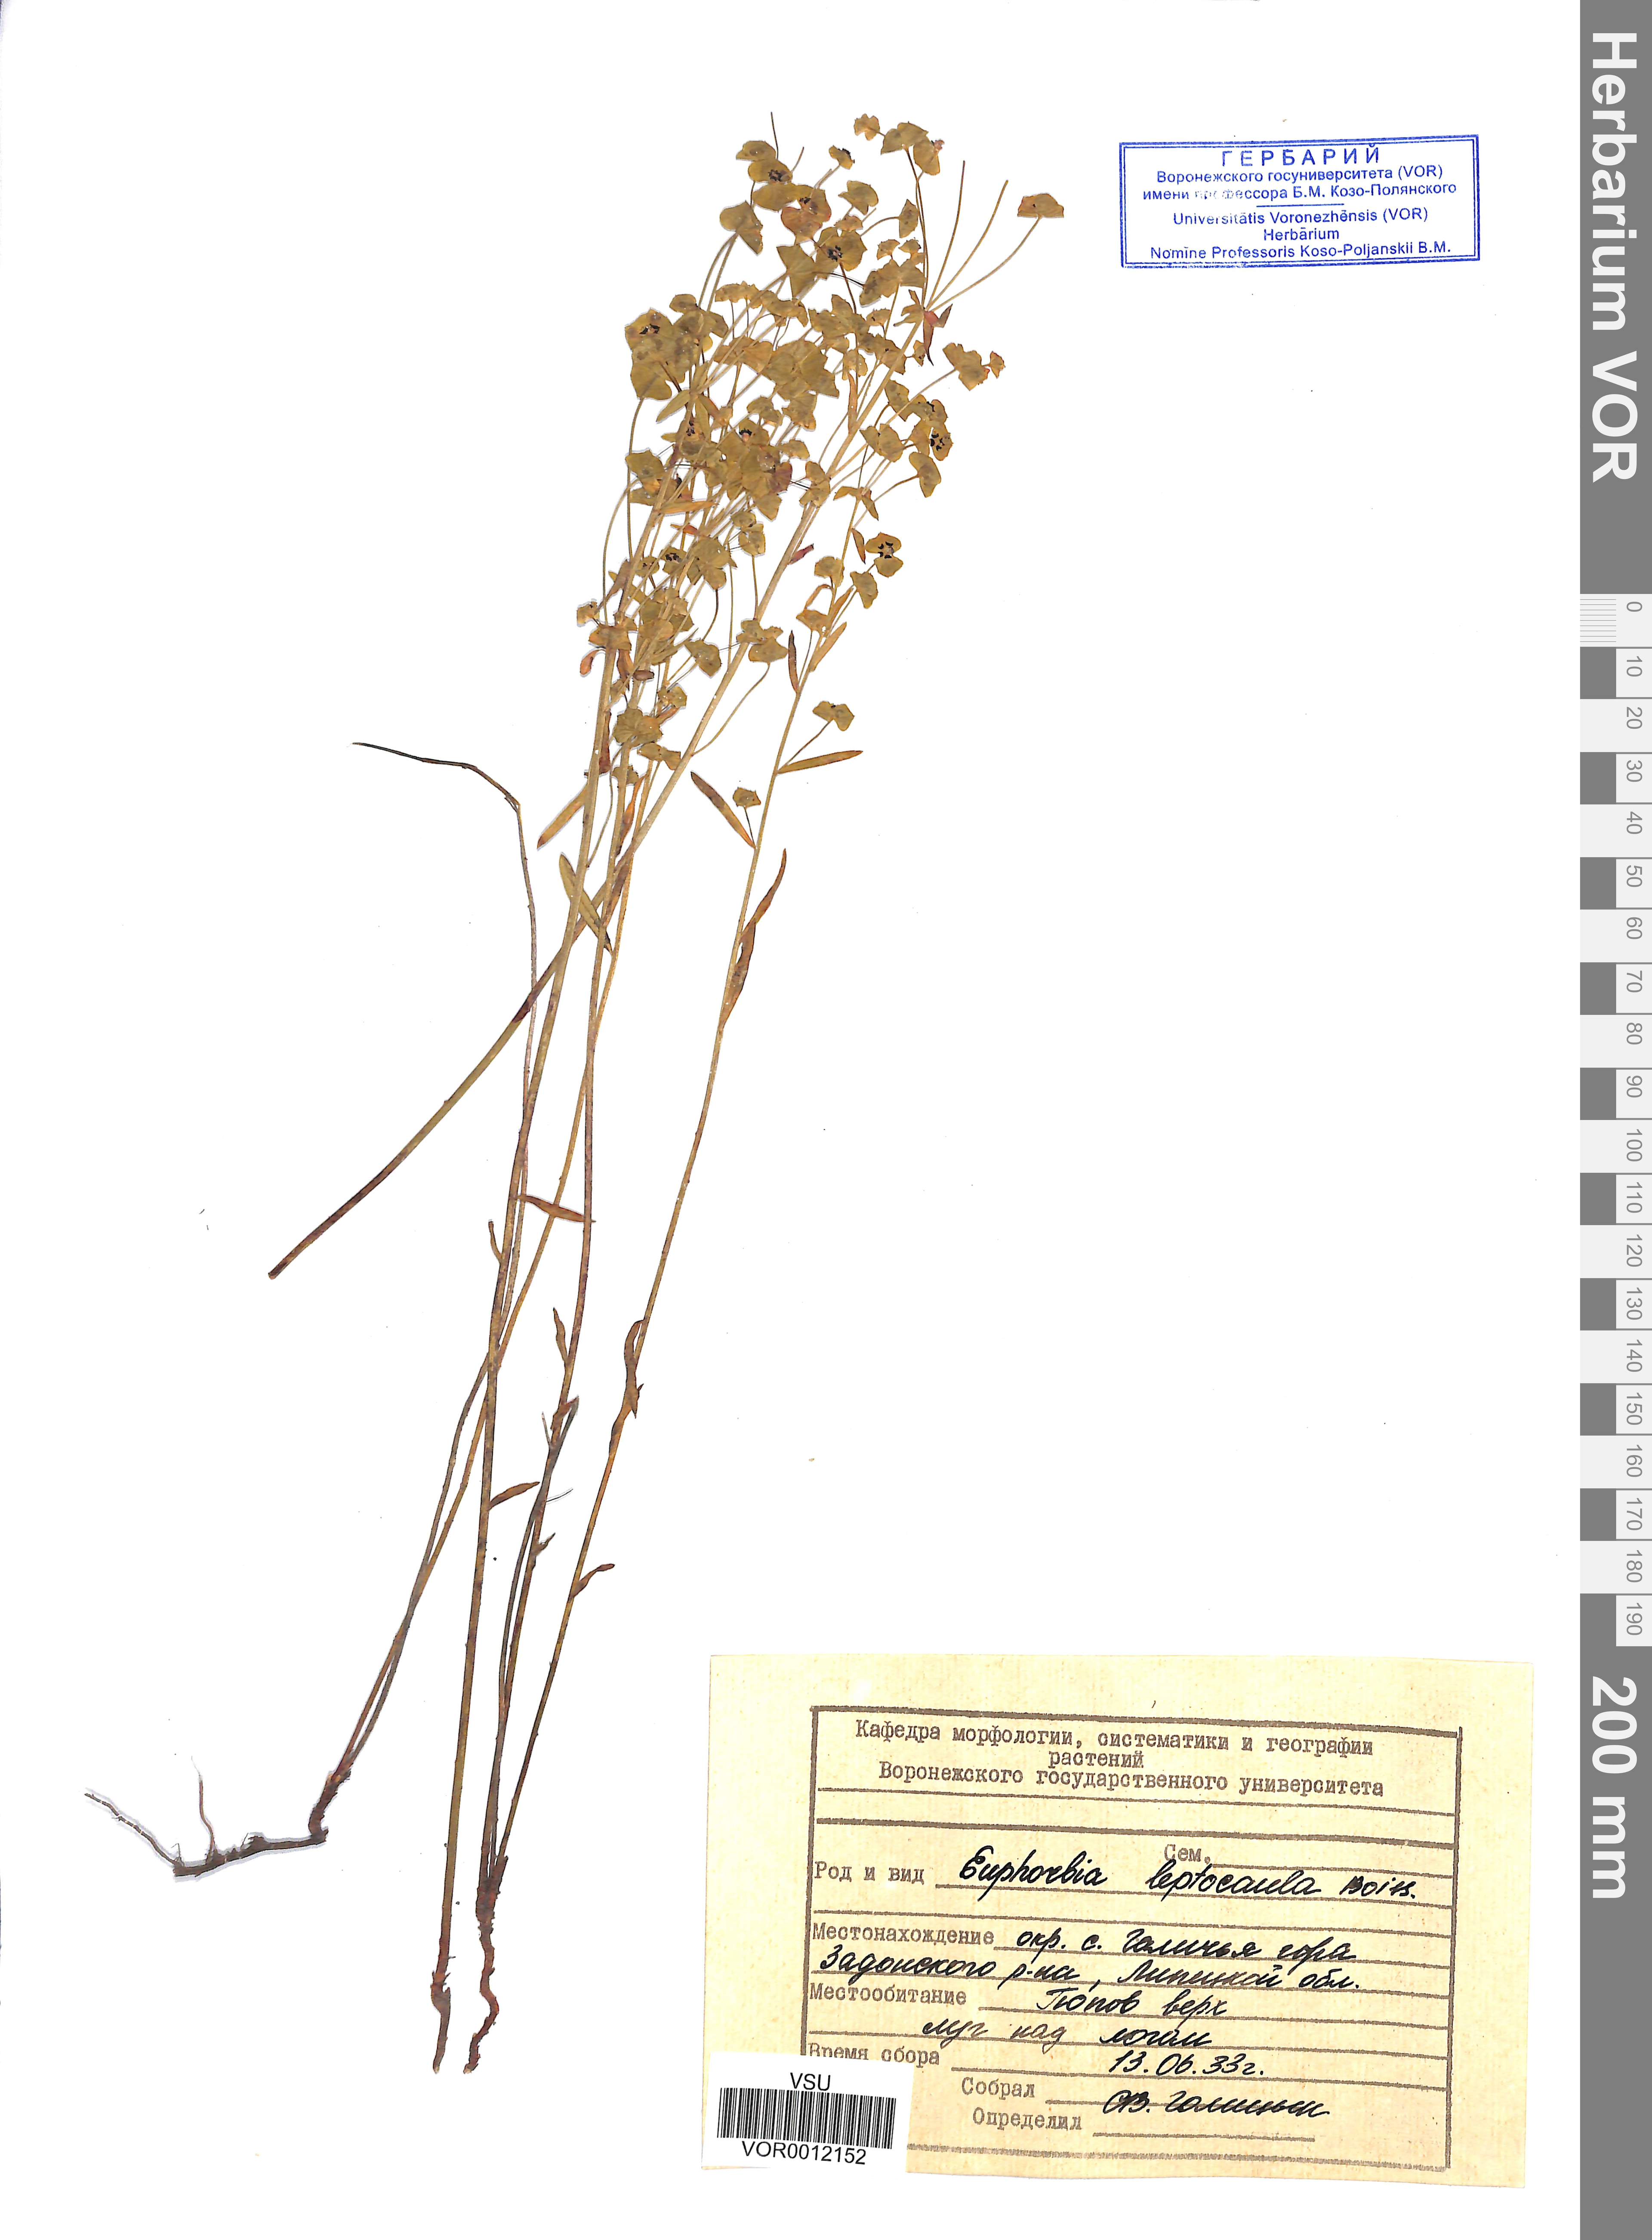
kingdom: Plantae
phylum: Tracheophyta
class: Magnoliopsida
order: Malpighiales
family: Euphorbiaceae
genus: Euphorbia
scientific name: Euphorbia leptocaula
